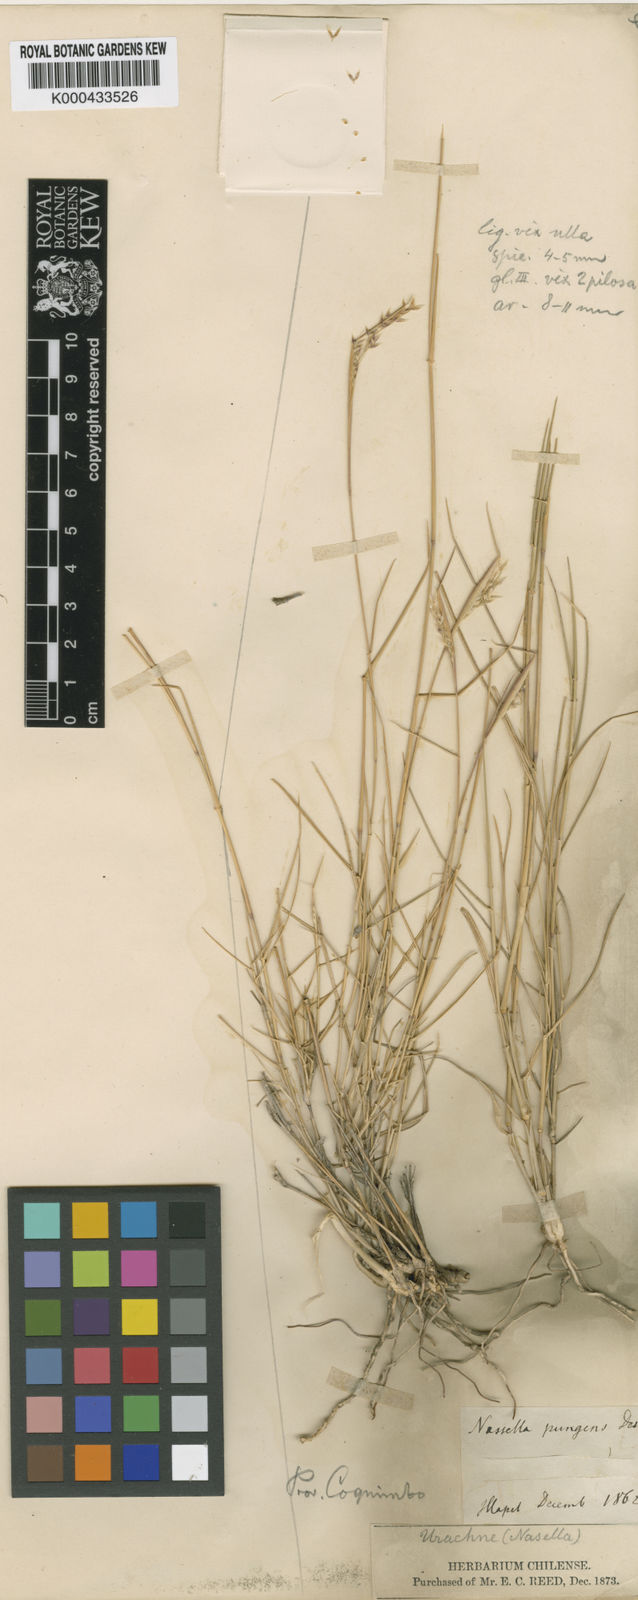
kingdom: Plantae
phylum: Tracheophyta
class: Liliopsida
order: Poales
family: Poaceae
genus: Nassella
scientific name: Nassella pungens
